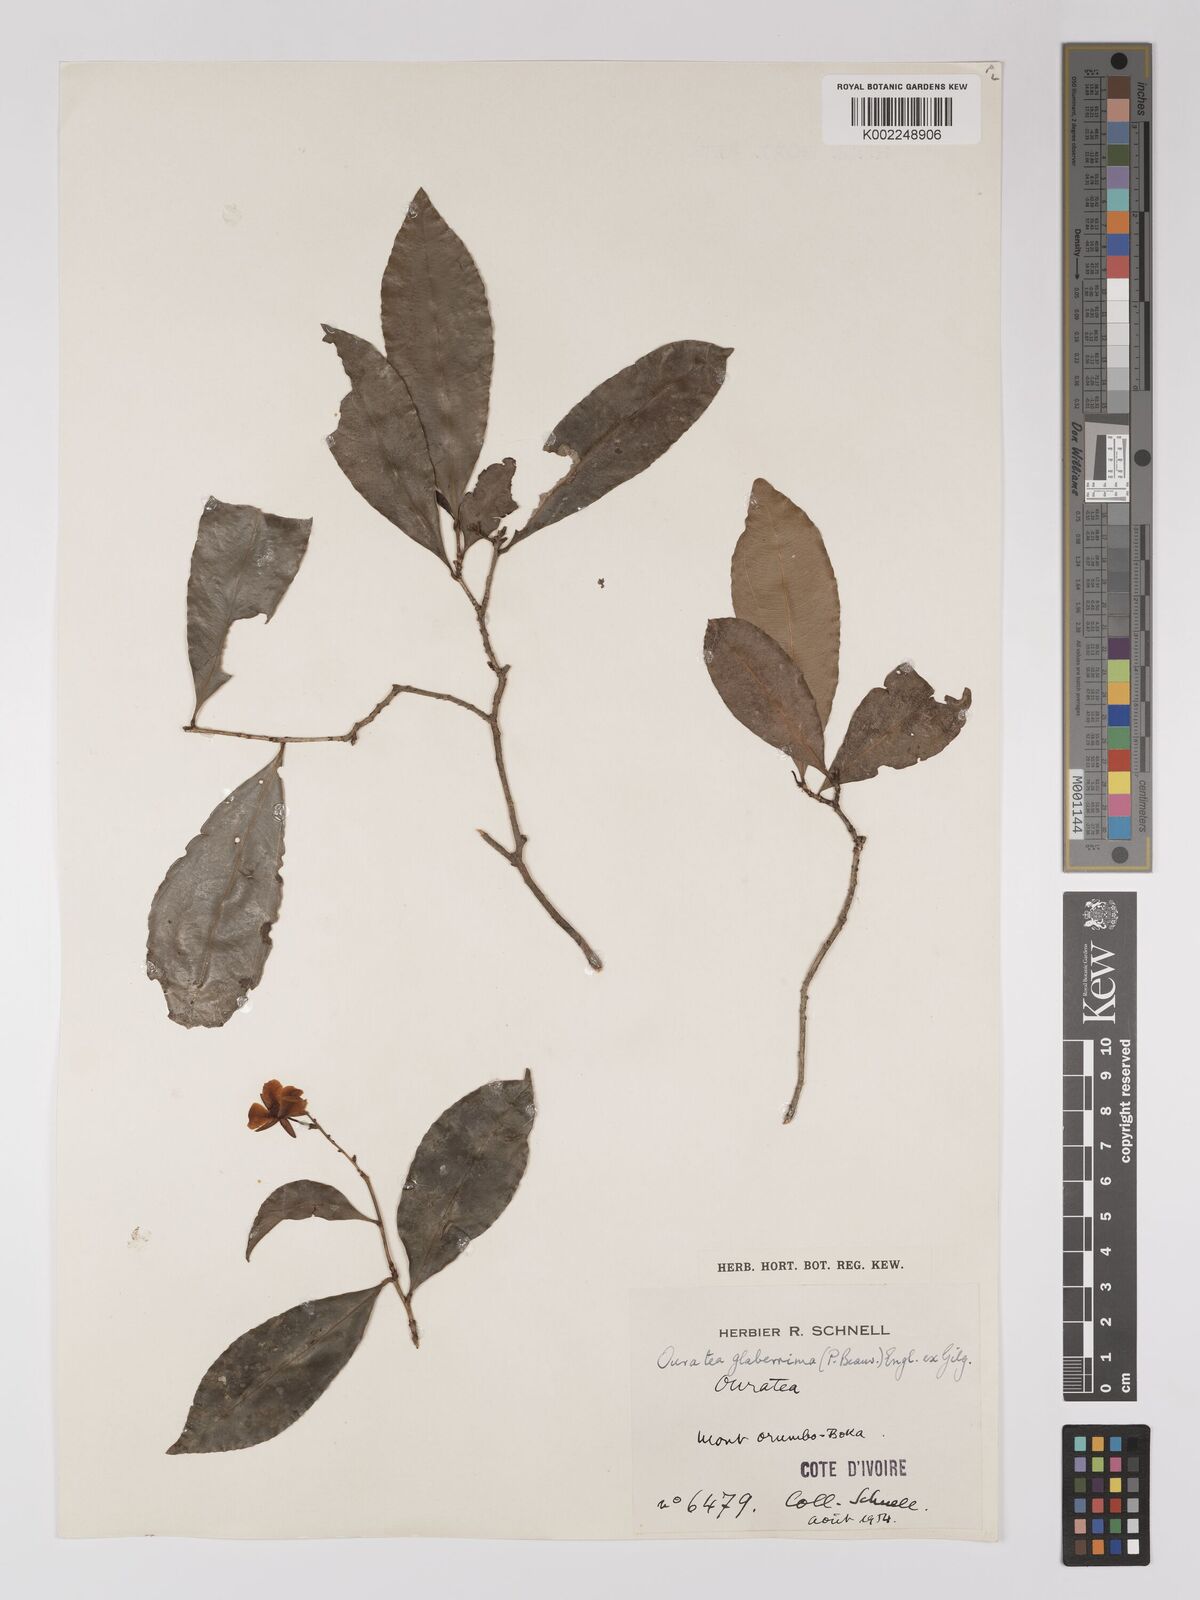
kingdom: Plantae
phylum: Tracheophyta
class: Magnoliopsida
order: Malpighiales
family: Ochnaceae
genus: Campylospermum
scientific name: Campylospermum glaberrimum
